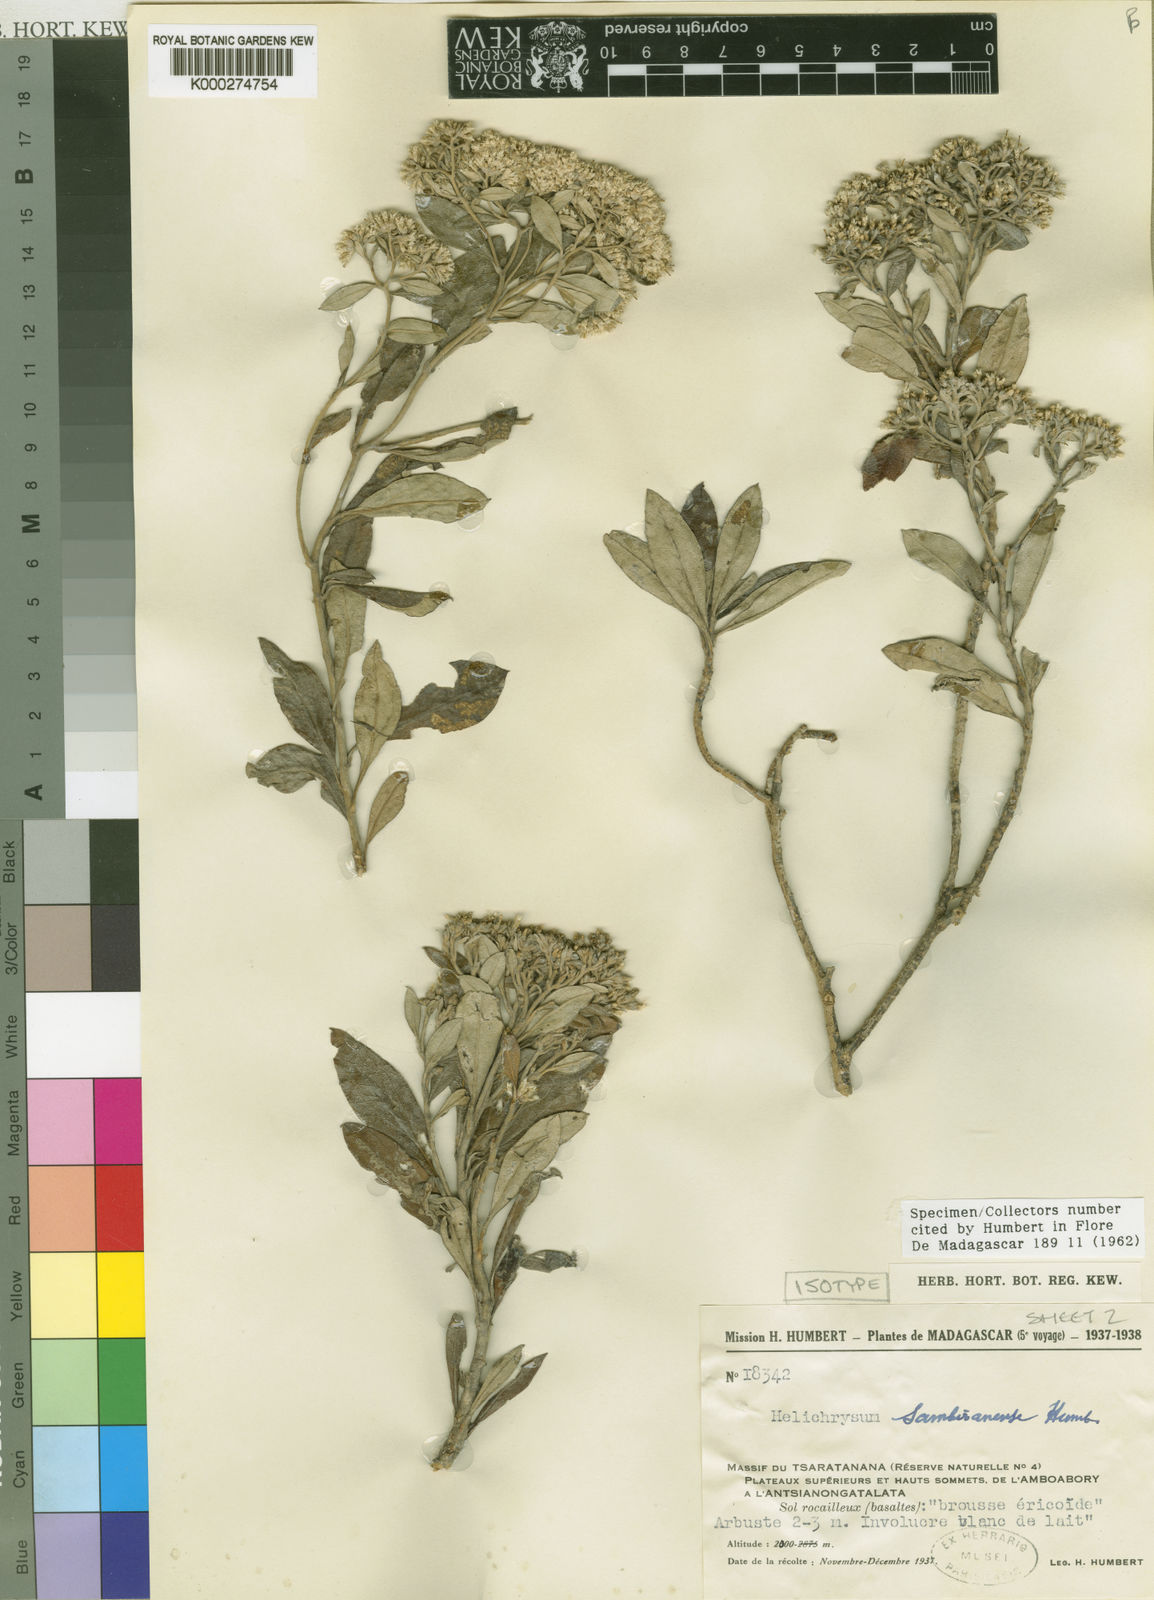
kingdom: Plantae
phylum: Tracheophyta
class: Magnoliopsida
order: Asterales
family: Asteraceae
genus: Helichrysum
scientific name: Helichrysum cordifolium
